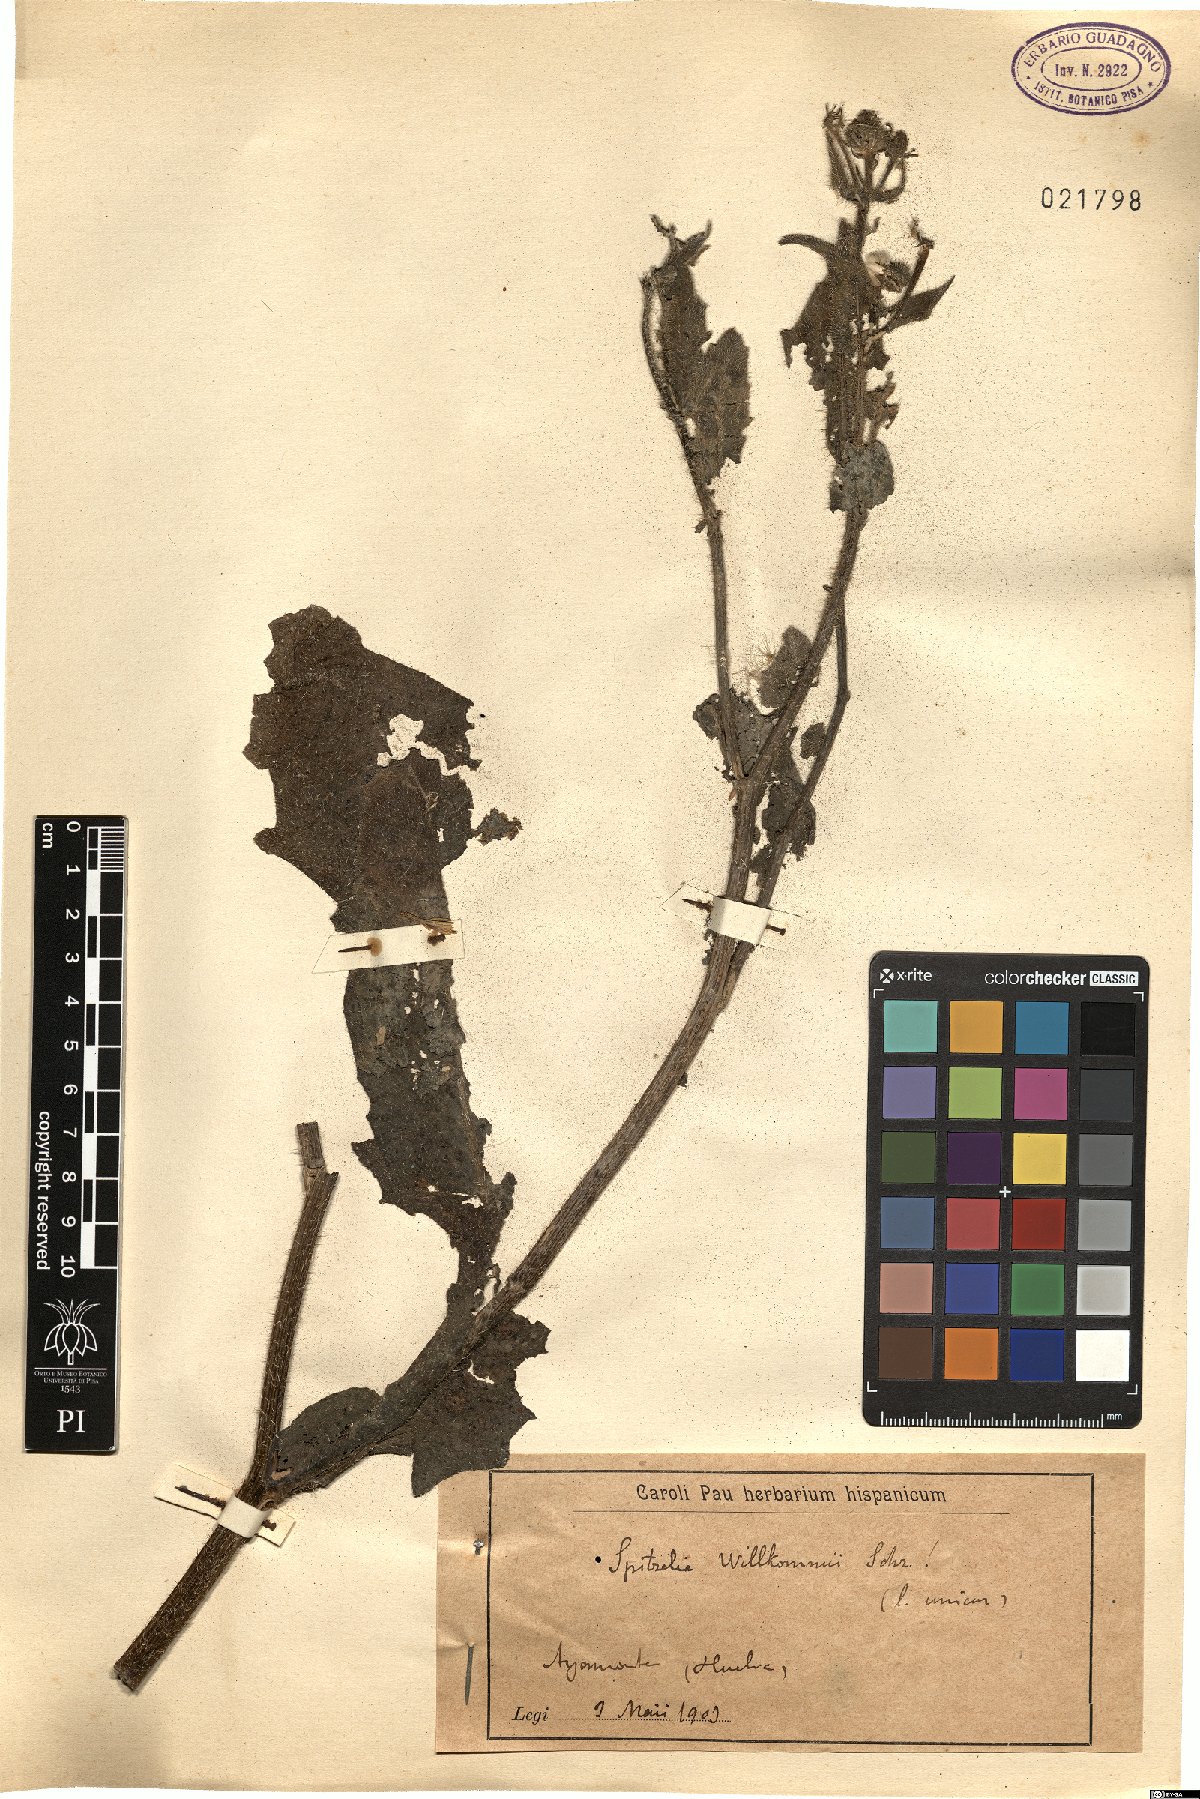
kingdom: Plantae
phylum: Tracheophyta
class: Magnoliopsida
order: Asterales
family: Asteraceae
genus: Picris
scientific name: Picris cupuligera
